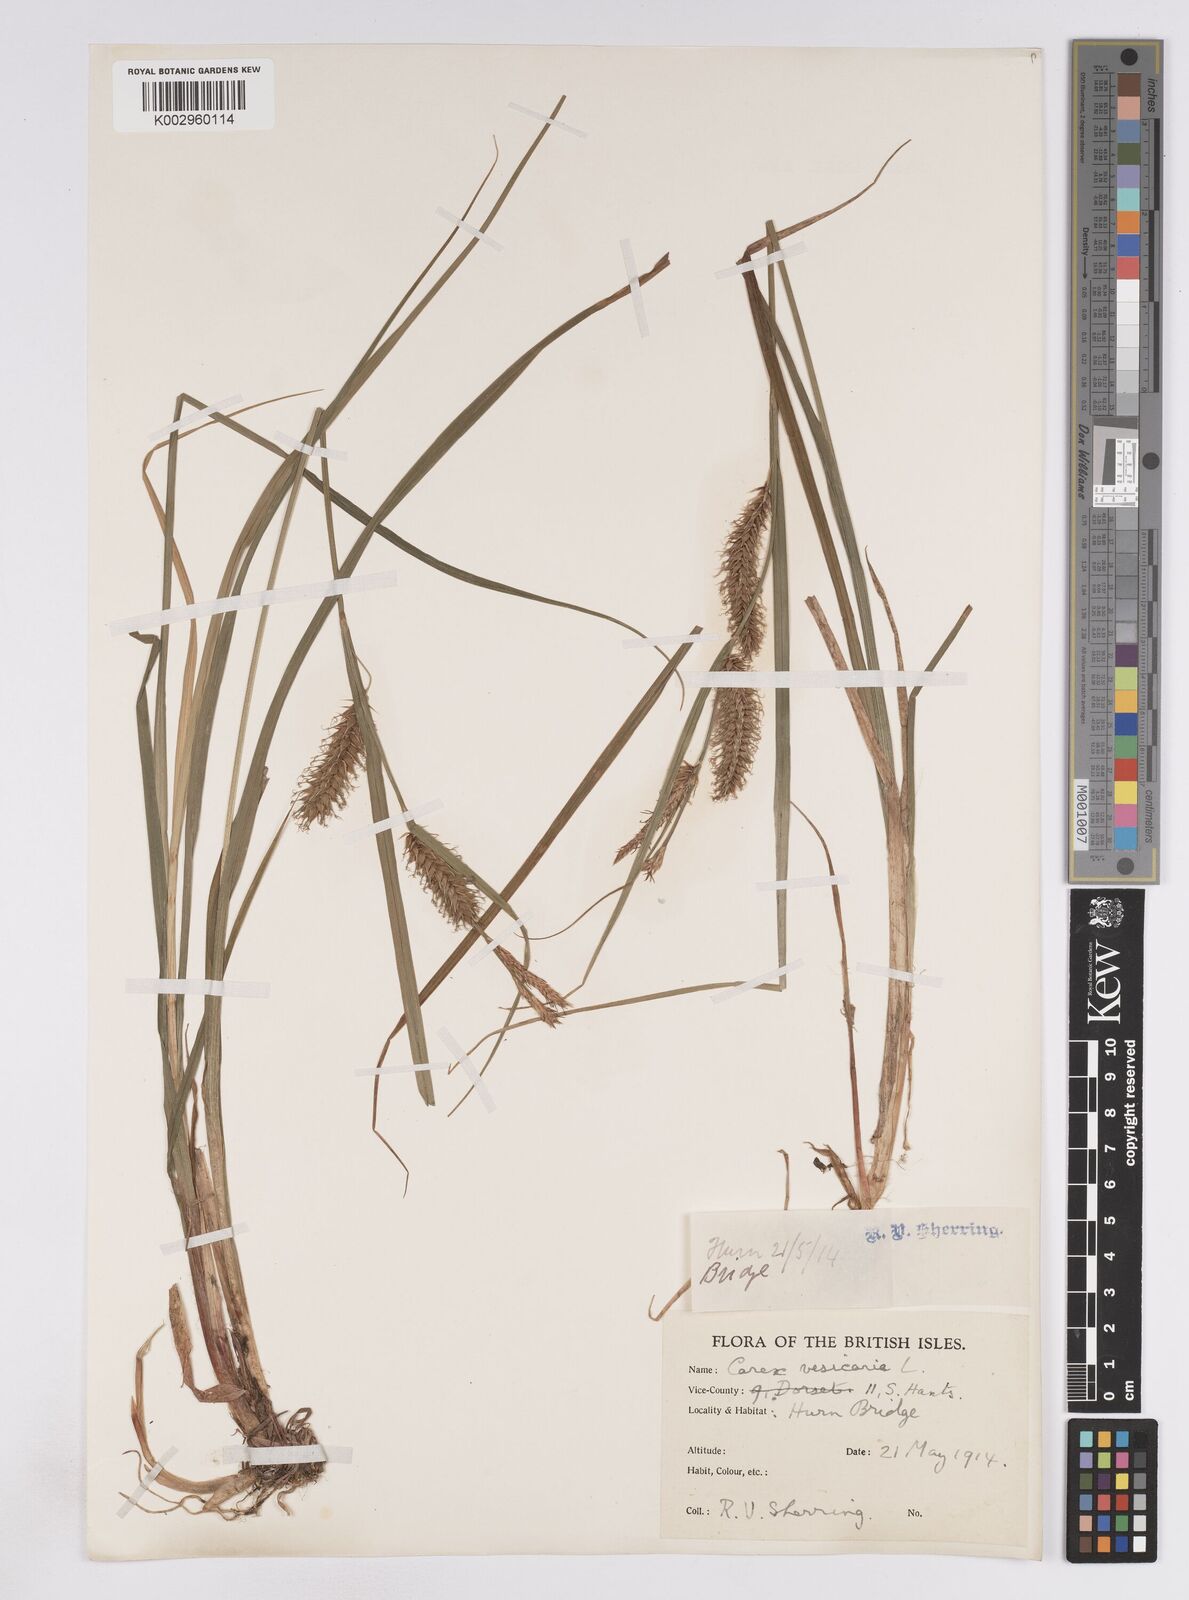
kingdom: Plantae
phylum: Tracheophyta
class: Liliopsida
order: Poales
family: Cyperaceae
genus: Carex
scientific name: Carex vesicaria
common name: Bladder-sedge
